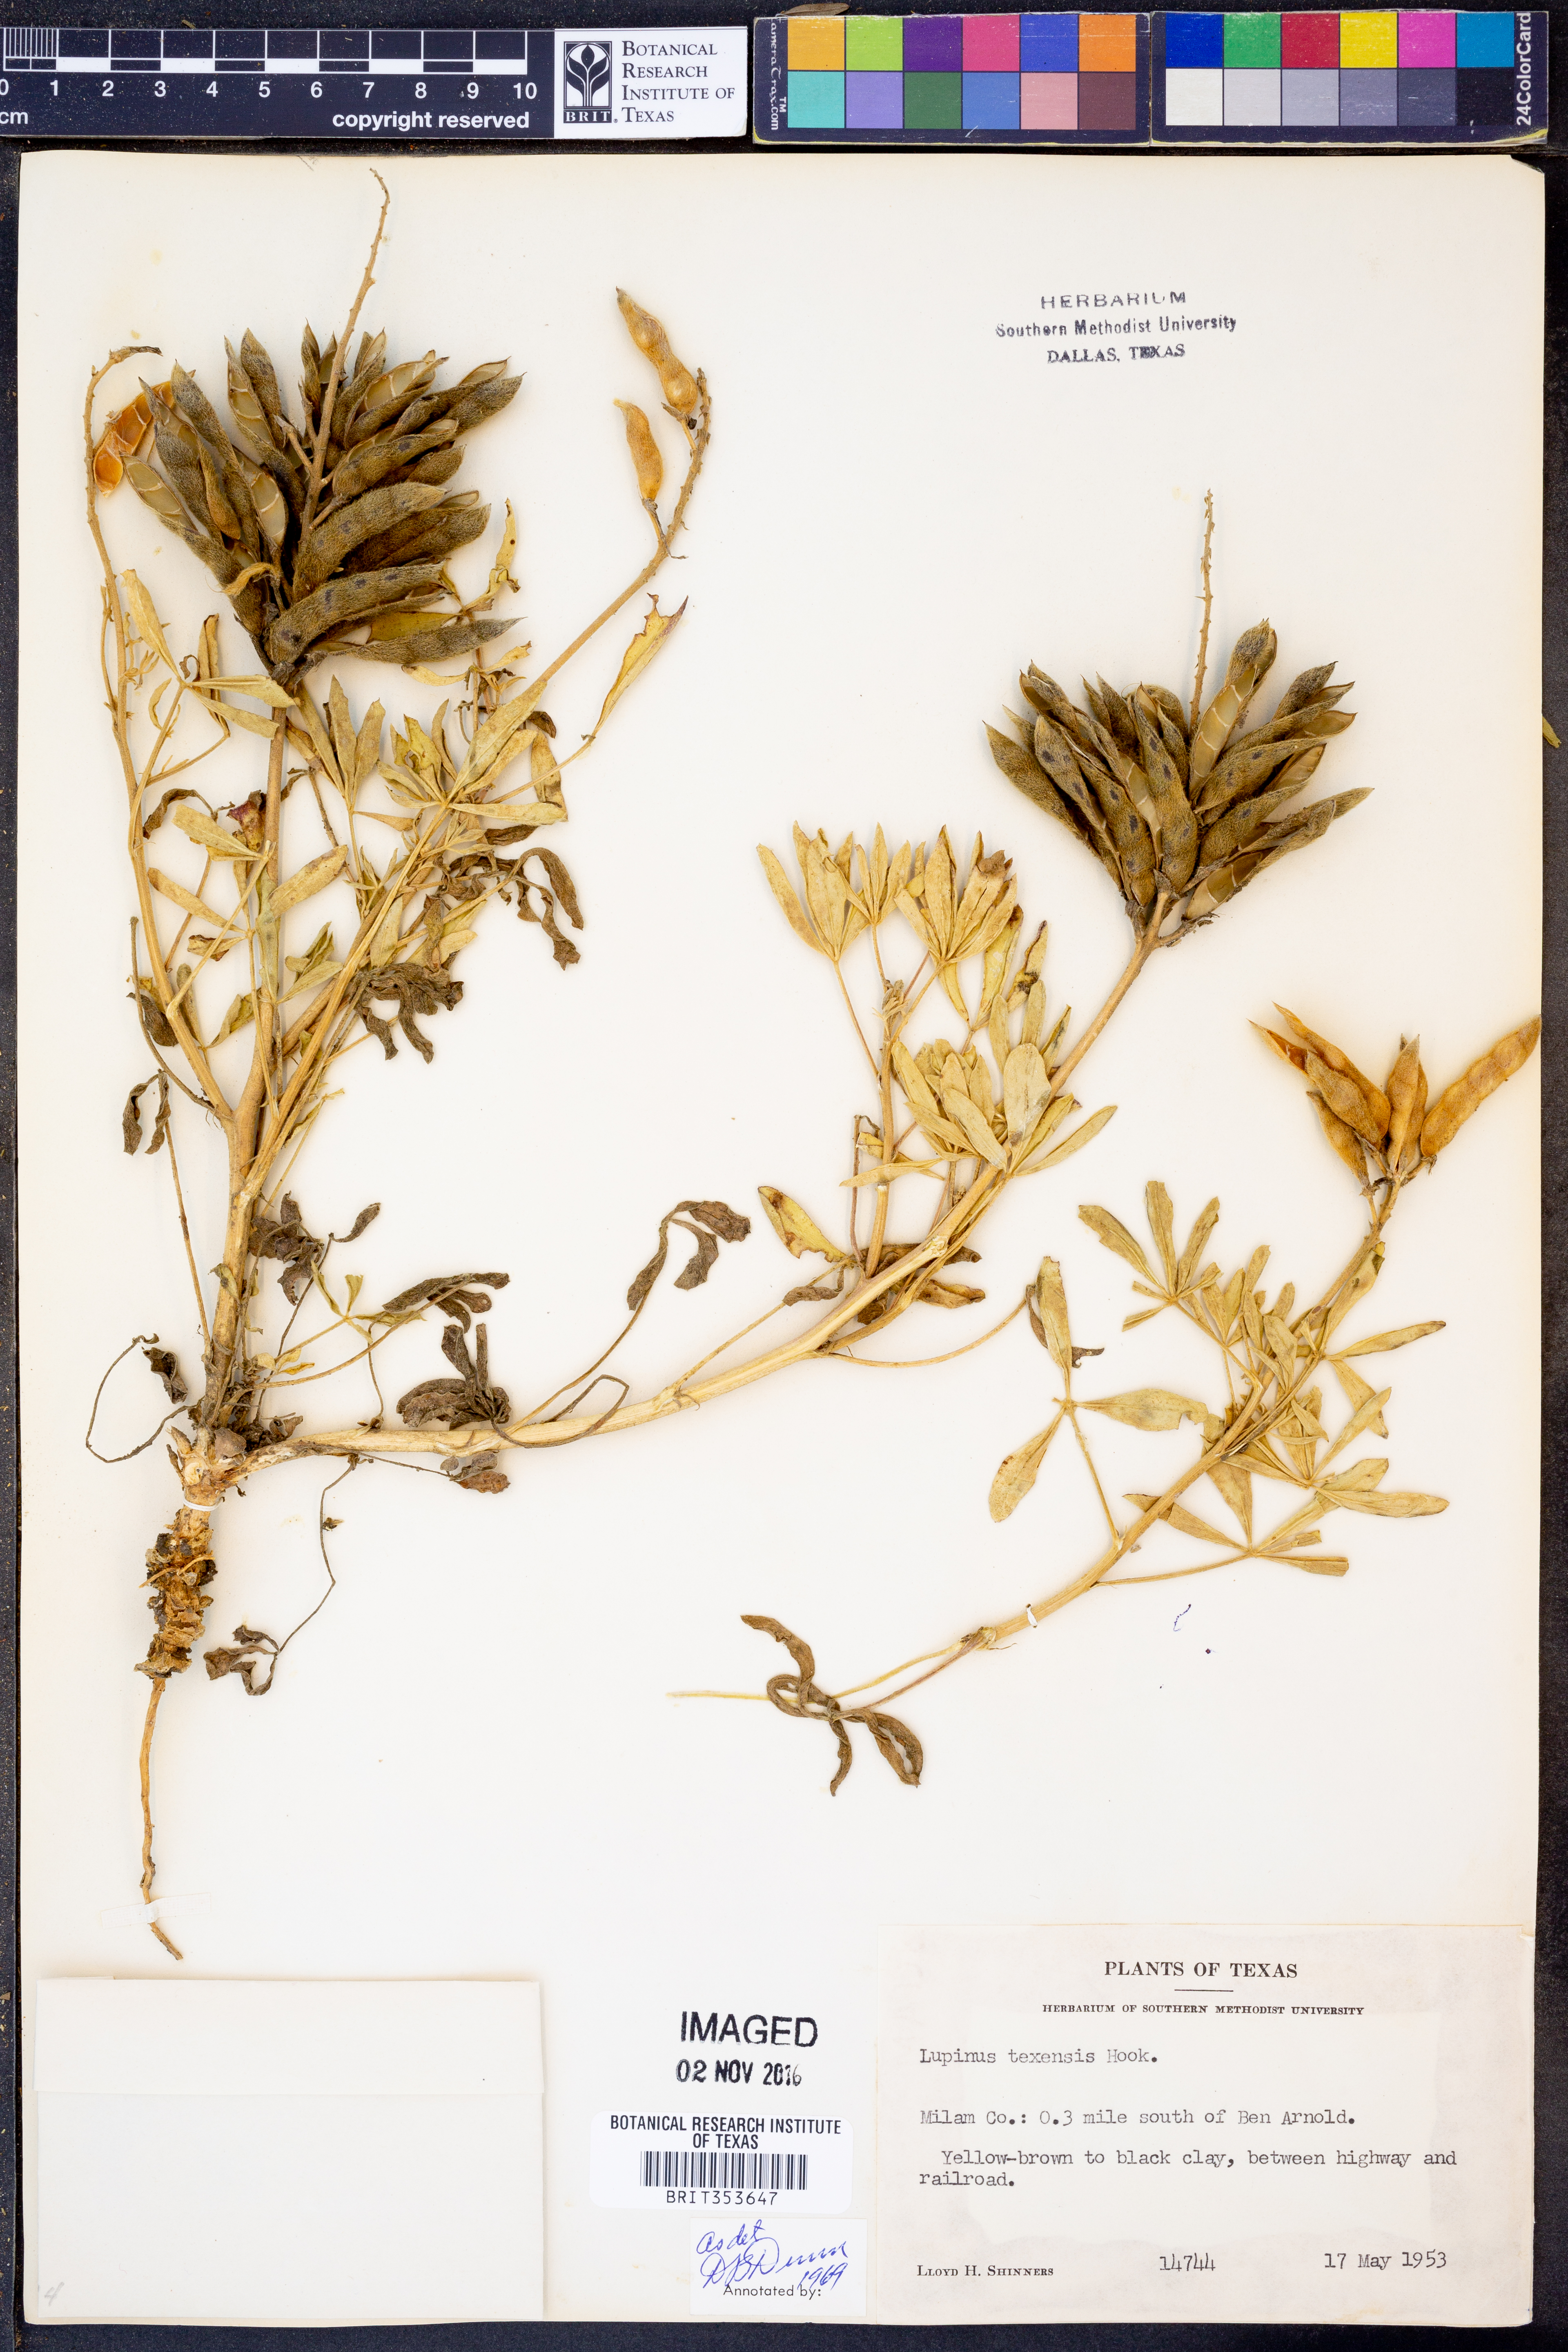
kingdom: Plantae
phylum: Tracheophyta
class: Magnoliopsida
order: Fabales
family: Fabaceae
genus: Lupinus
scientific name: Lupinus texensis
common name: Texas bluebonnet
